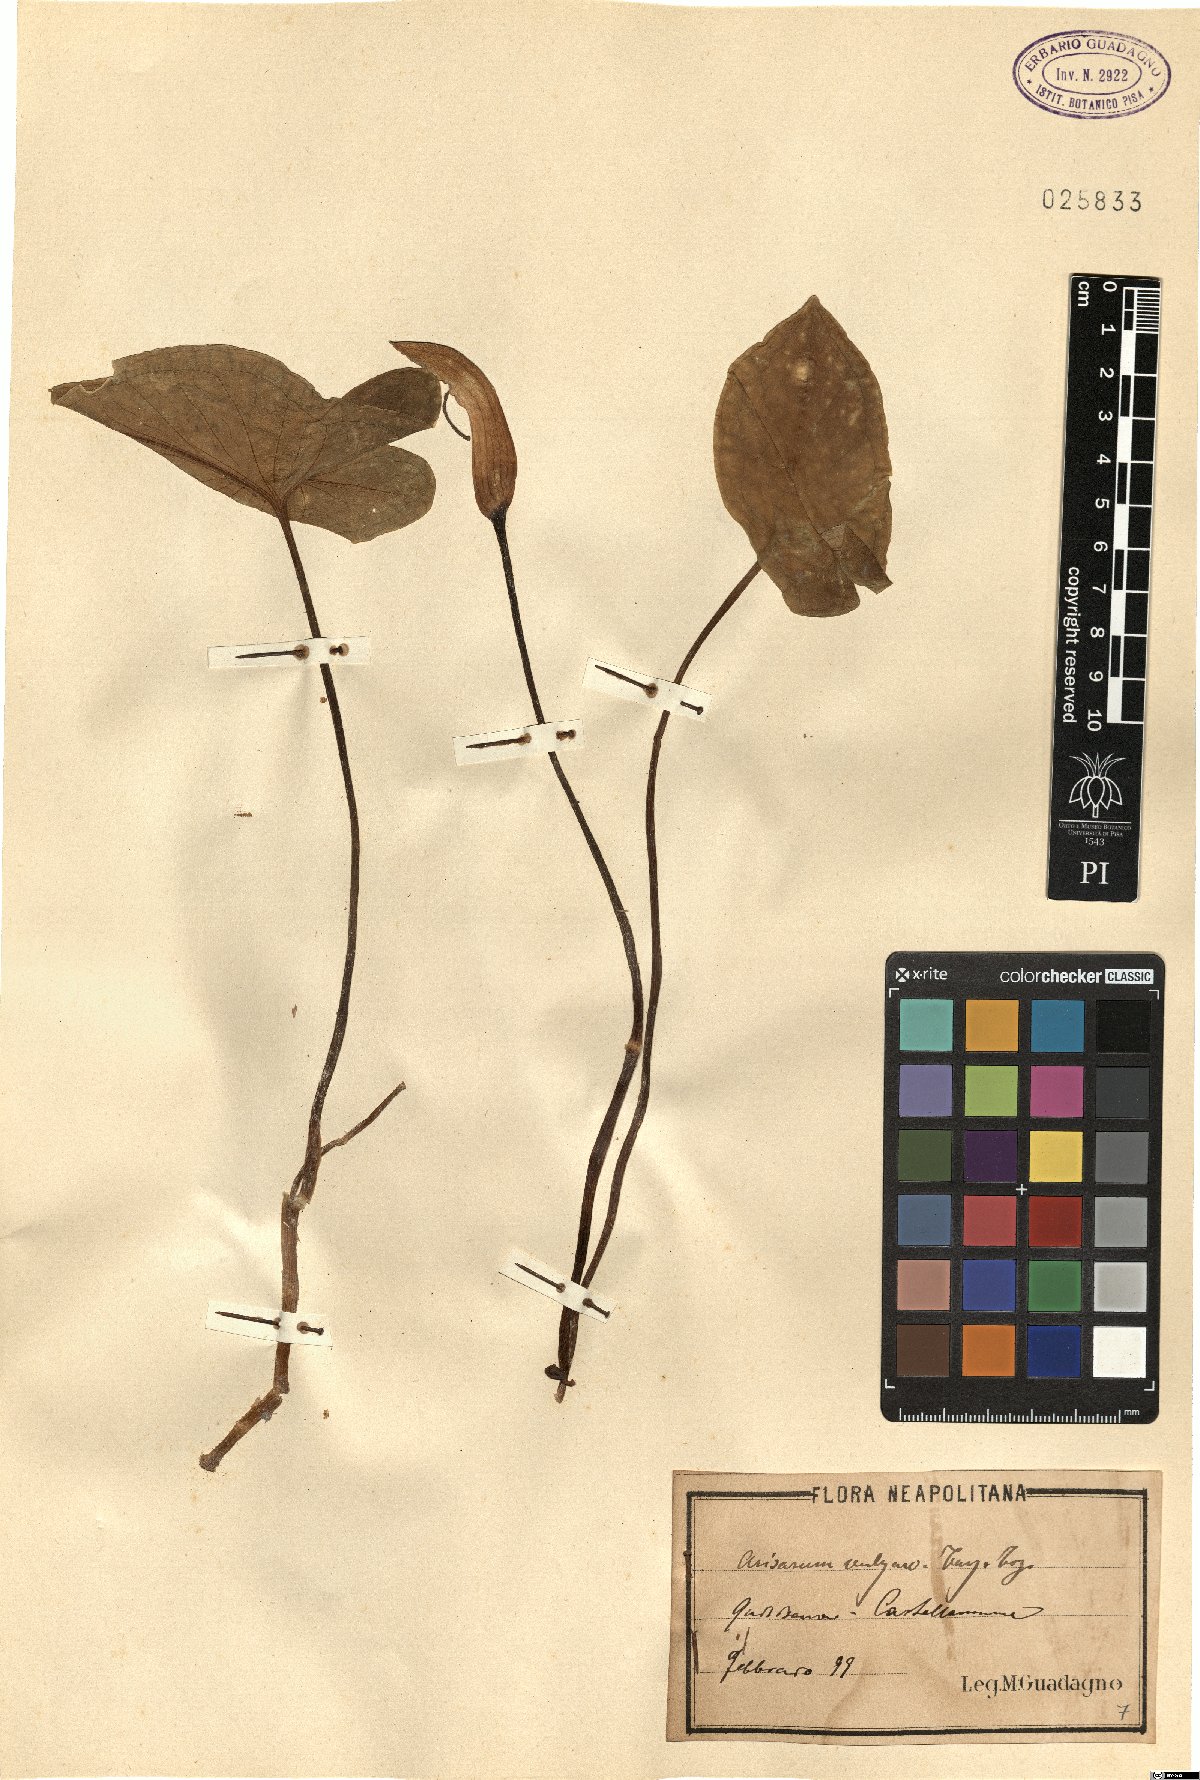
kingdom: Plantae
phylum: Tracheophyta
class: Liliopsida
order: Alismatales
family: Araceae
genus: Arisarum
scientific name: Arisarum vulgare
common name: Common arisarum
